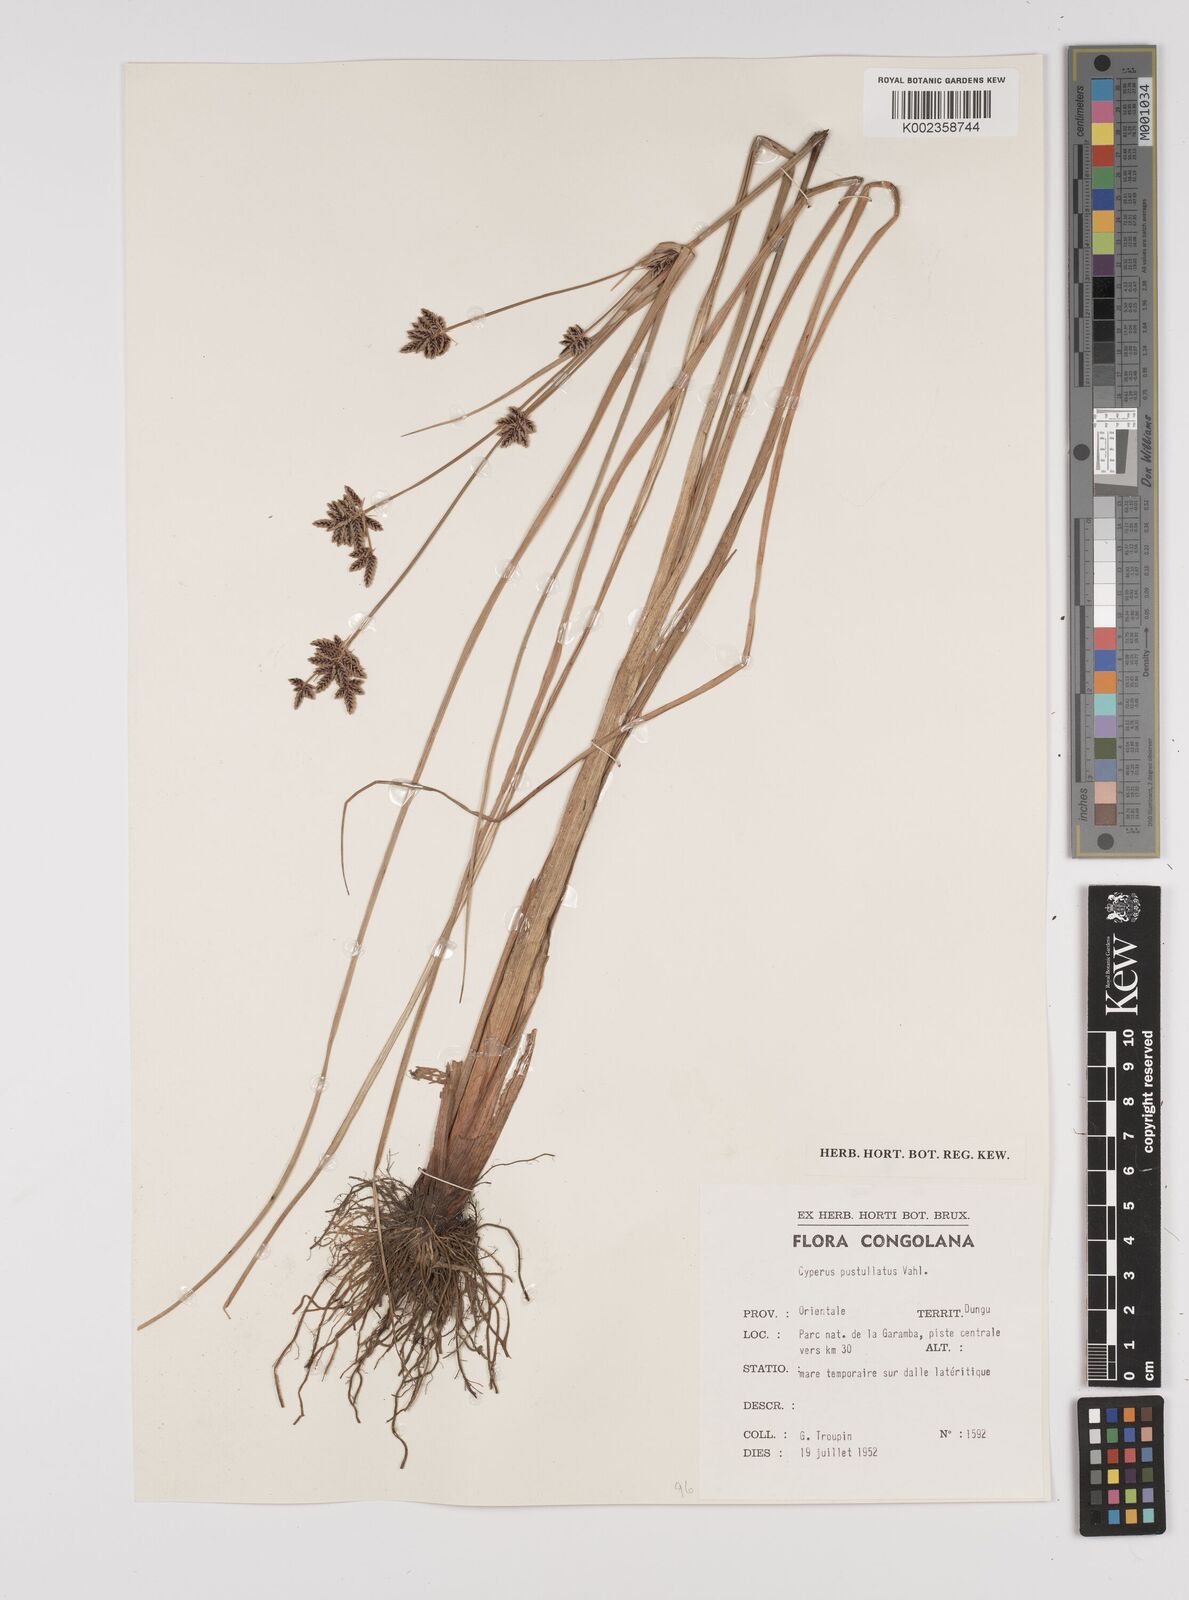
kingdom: Plantae
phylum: Tracheophyta
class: Liliopsida
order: Poales
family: Cyperaceae
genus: Cyperus
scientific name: Cyperus pustulatus
